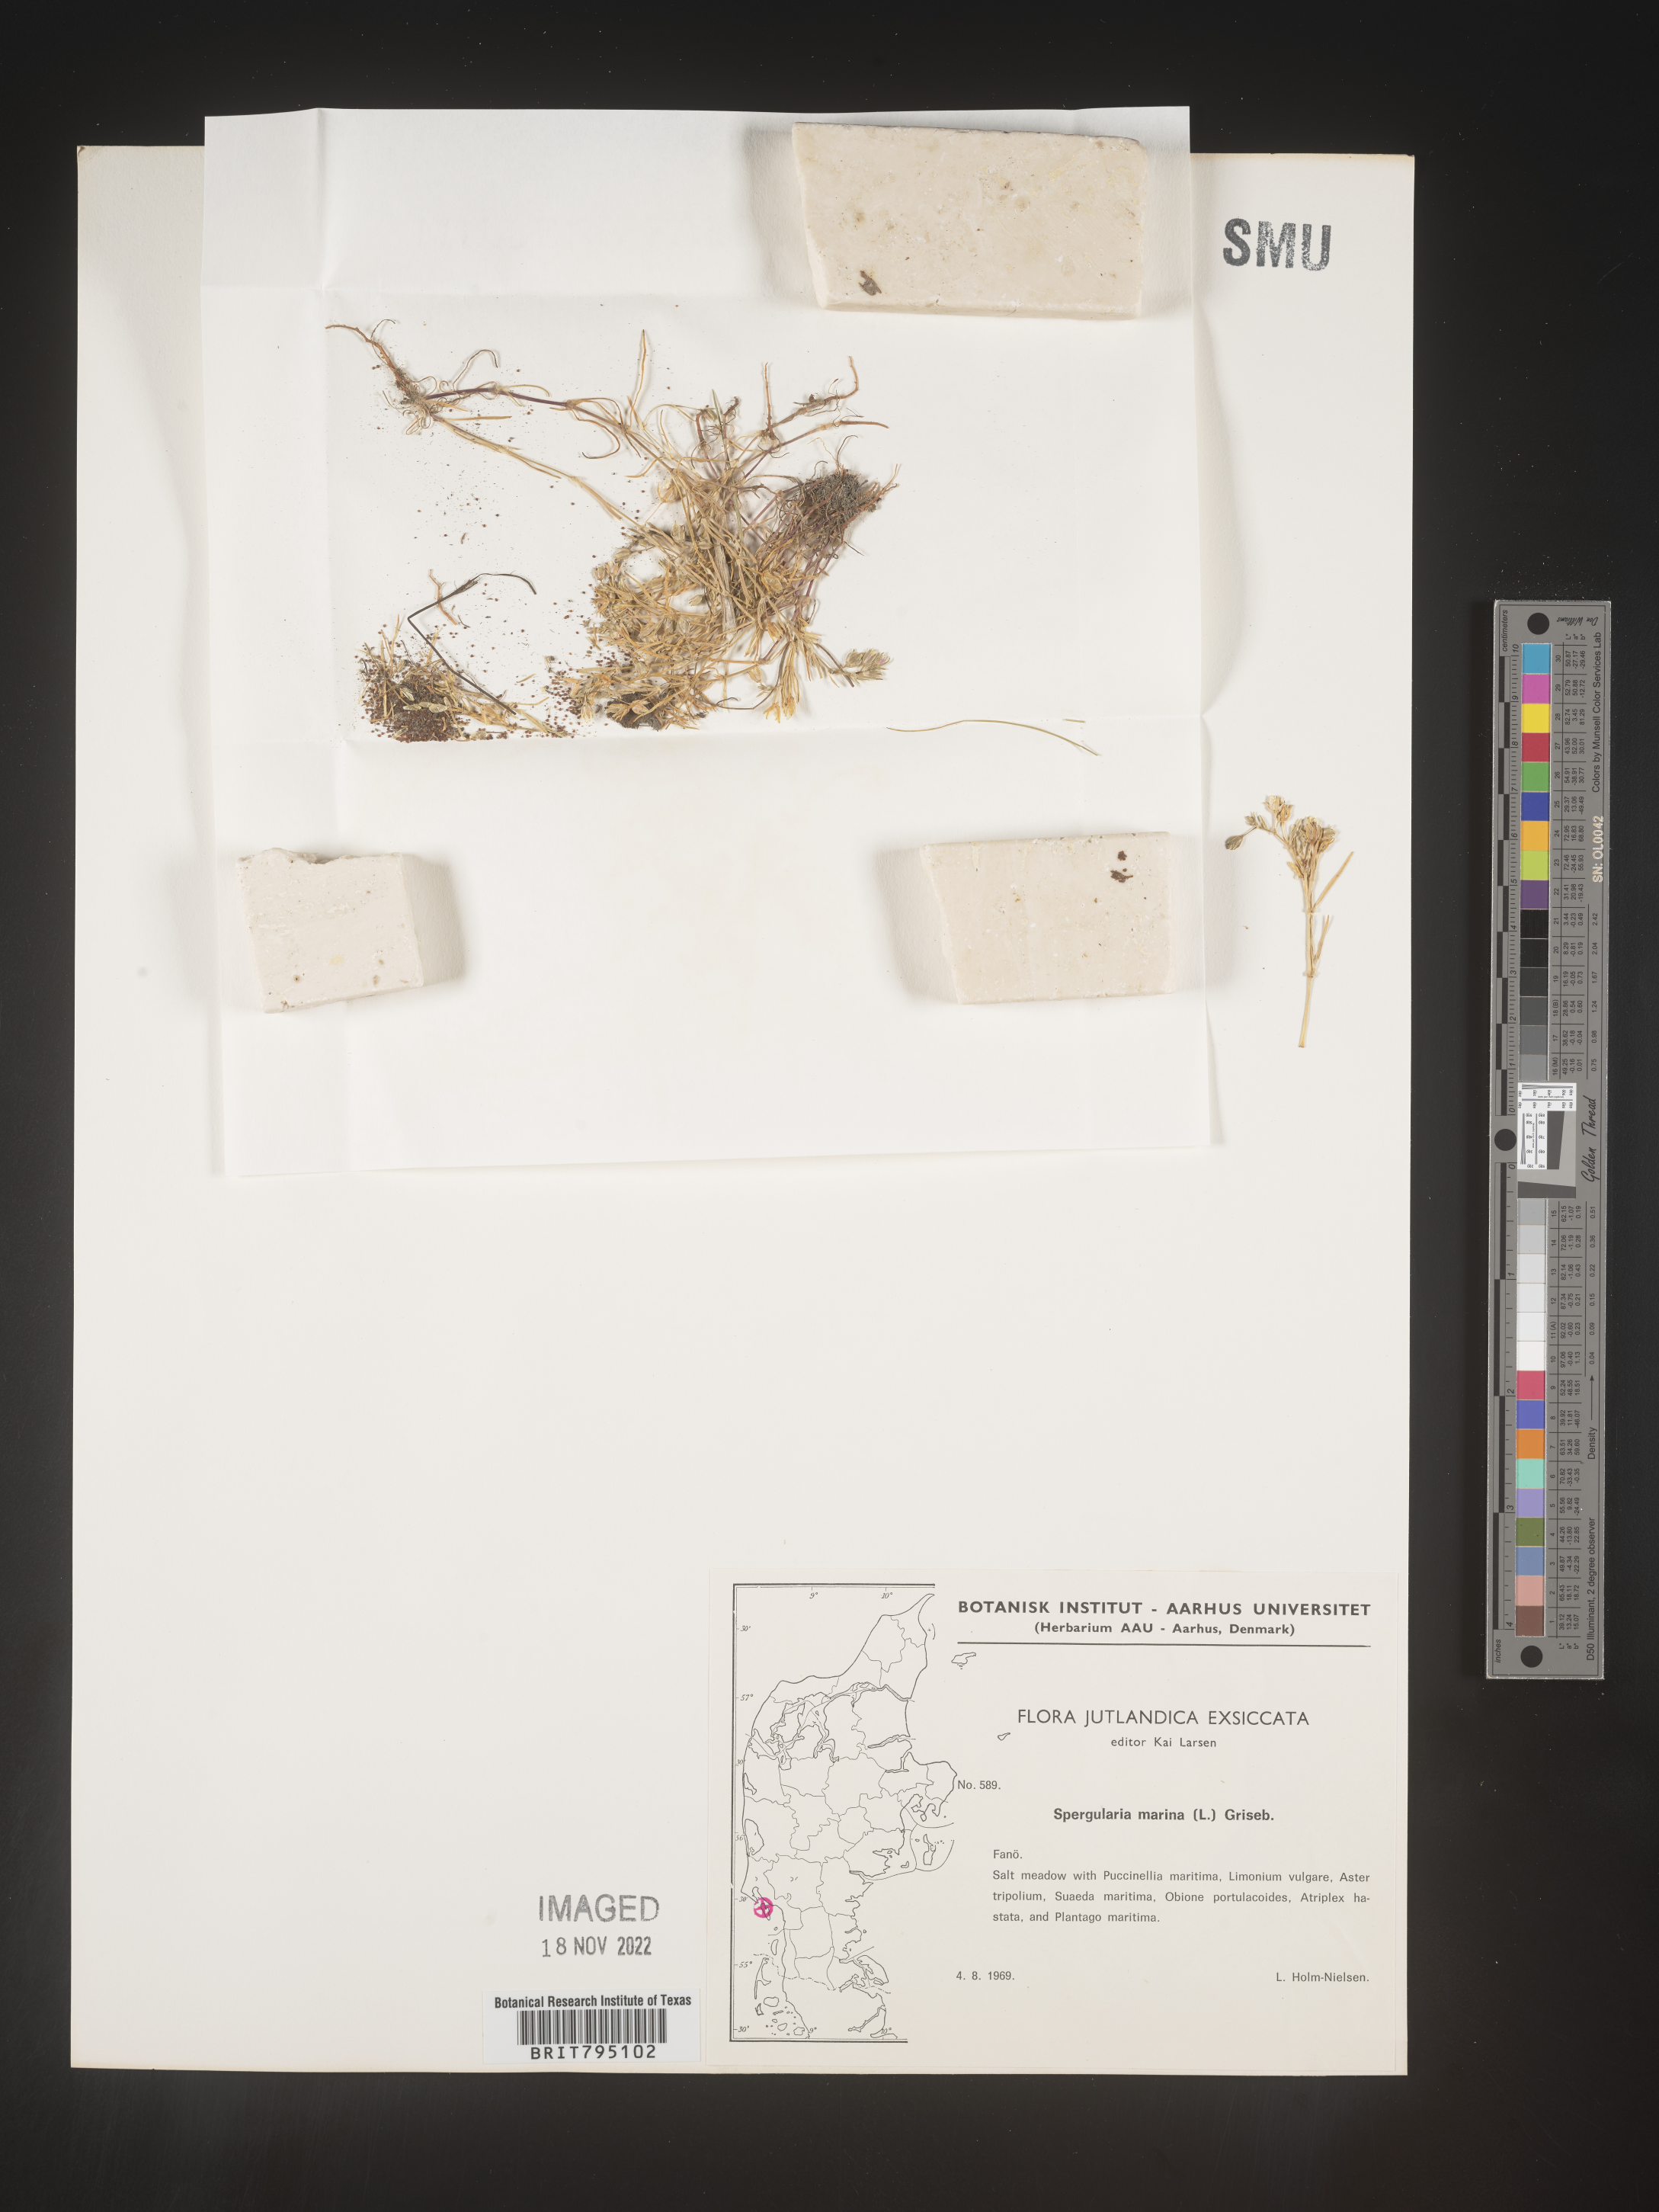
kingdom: Plantae
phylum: Tracheophyta
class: Magnoliopsida
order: Caryophyllales
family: Caryophyllaceae
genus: Spergularia
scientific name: Spergularia marina
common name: Lesser sea-spurrey
